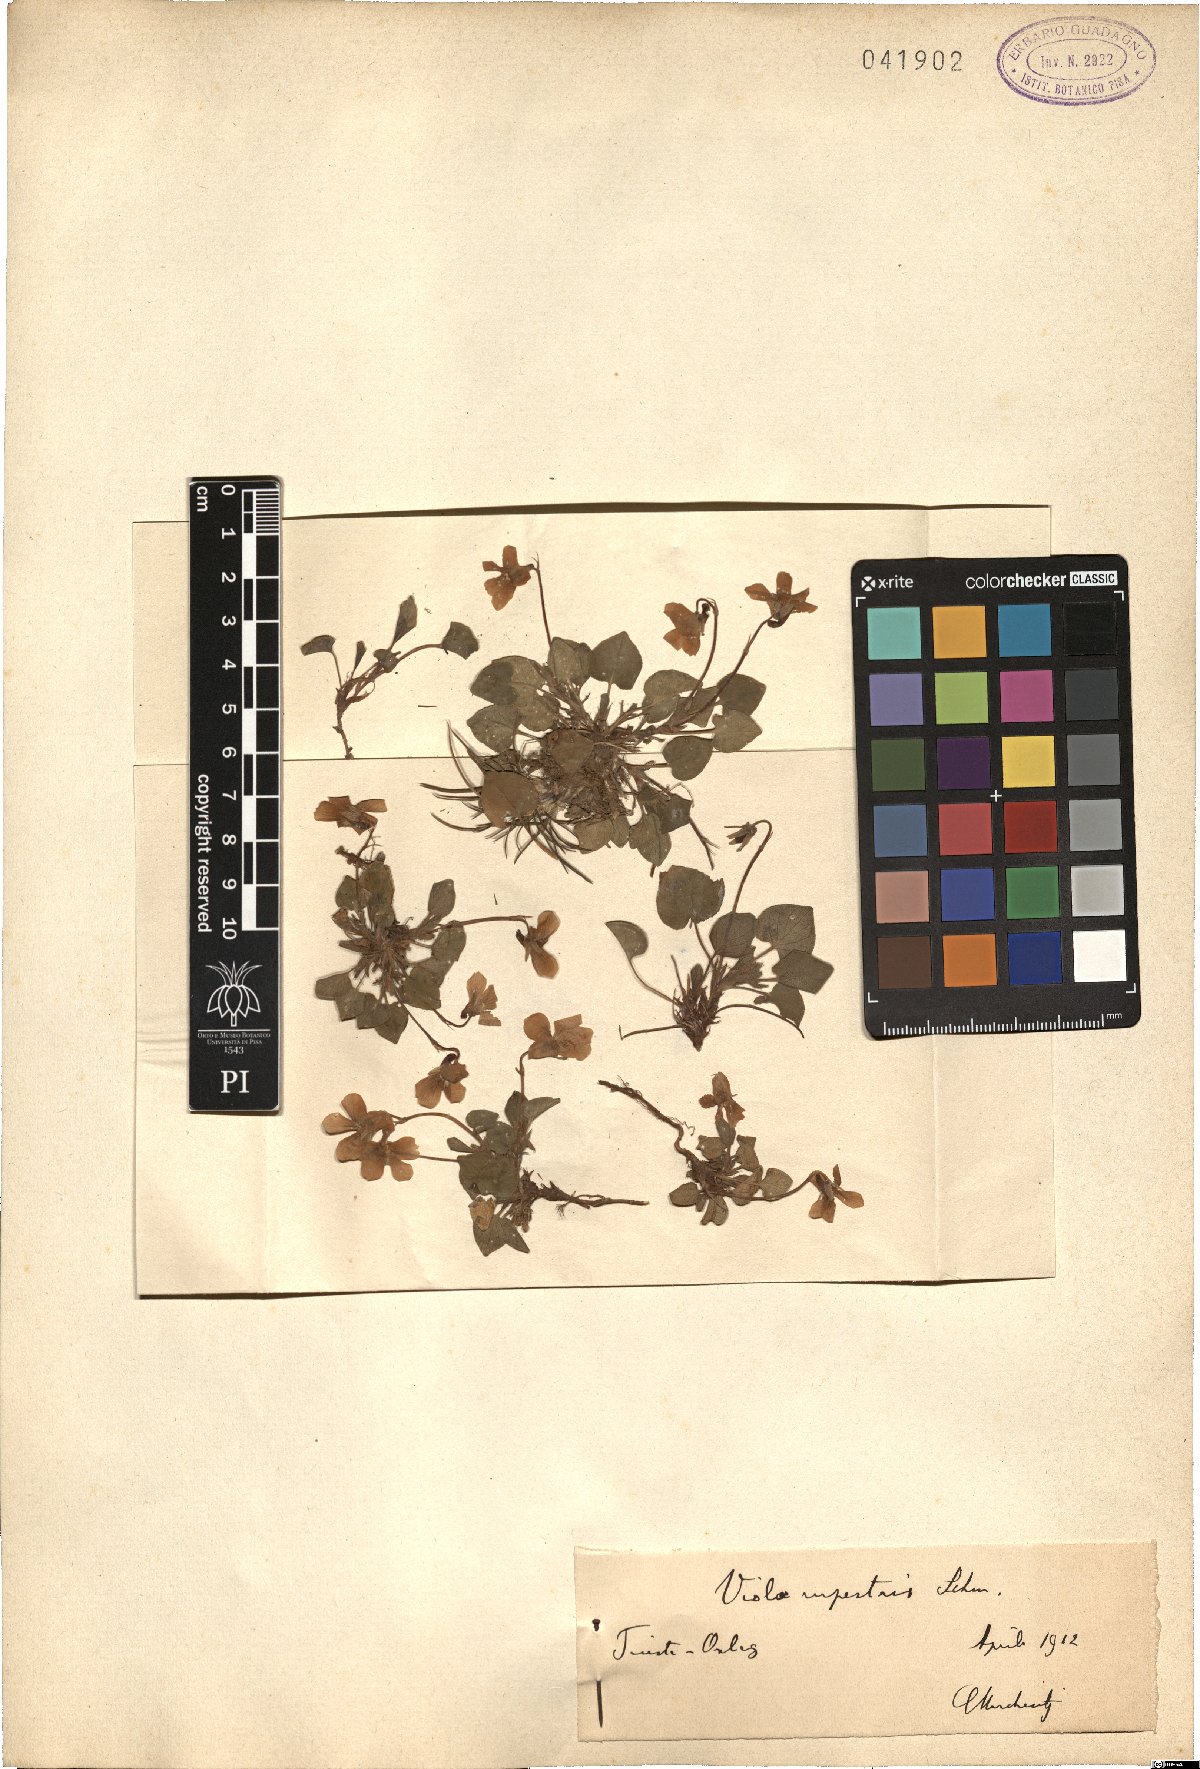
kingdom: Plantae
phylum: Tracheophyta
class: Magnoliopsida
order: Malpighiales
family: Violaceae
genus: Viola
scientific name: Viola rupestris
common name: Teesdale violet
